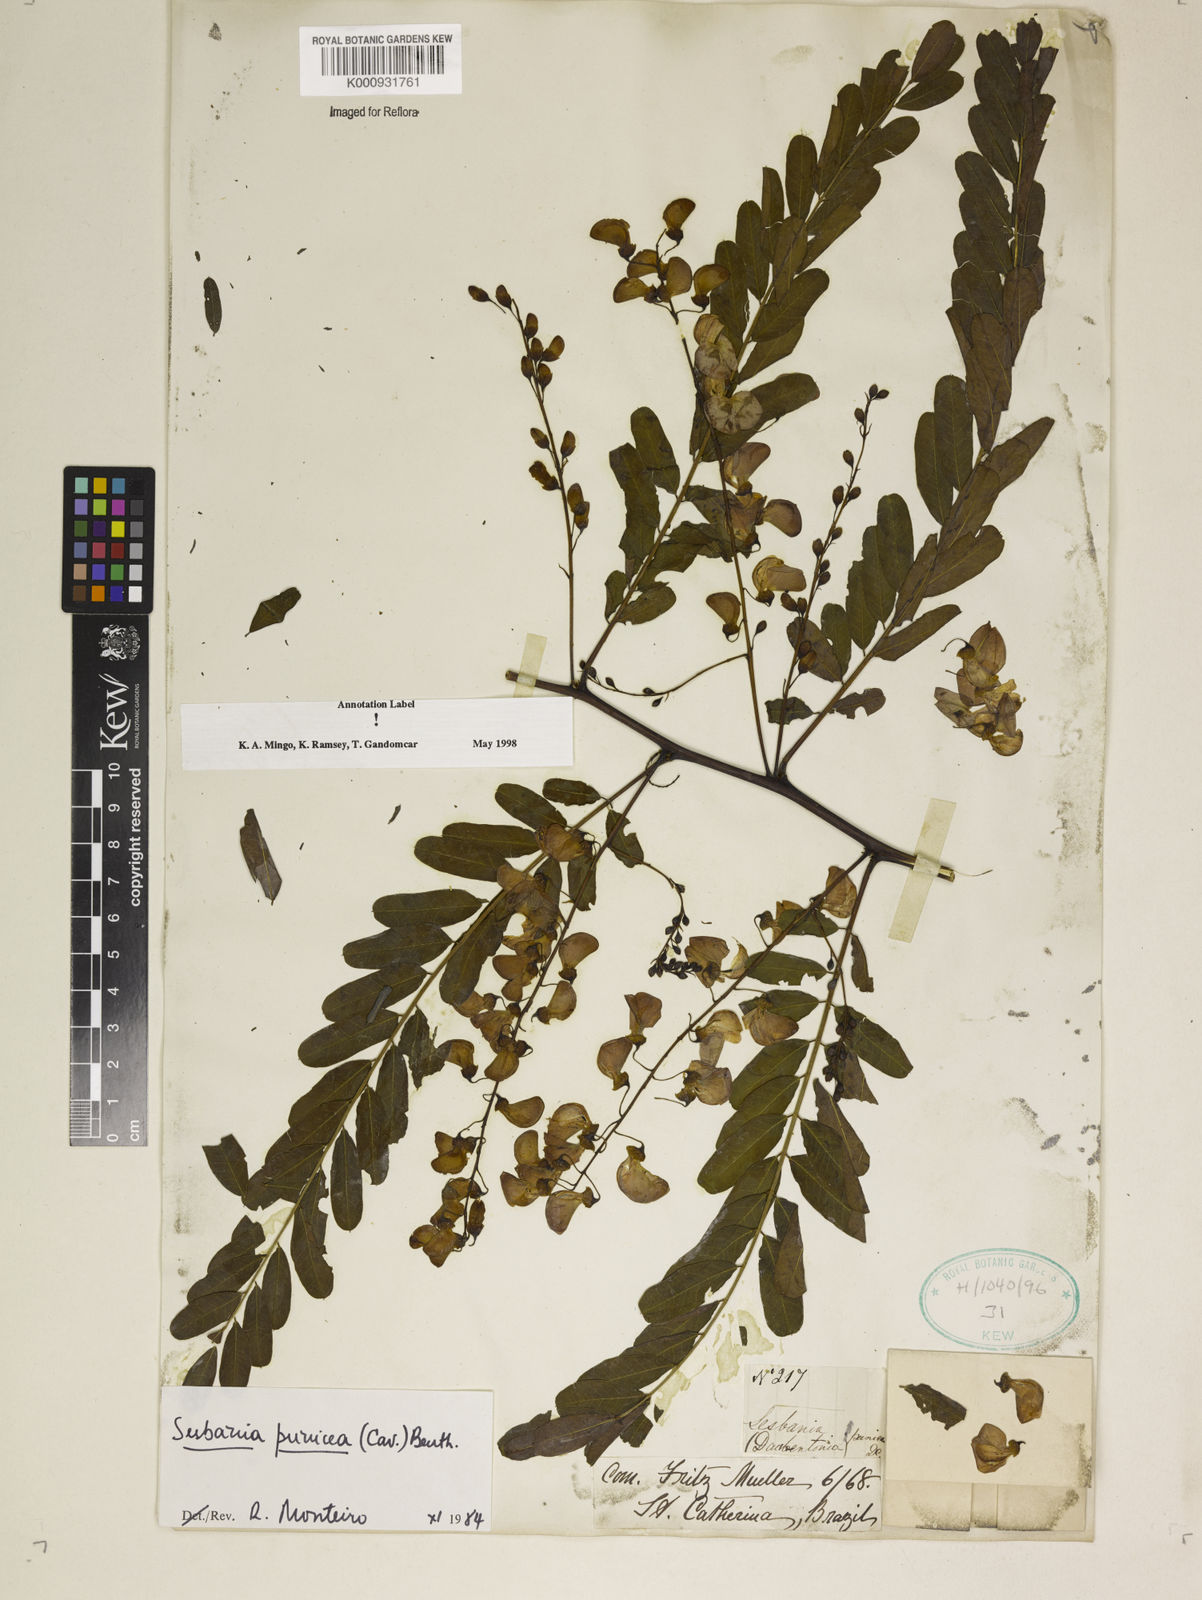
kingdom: Plantae
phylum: Tracheophyta
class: Magnoliopsida
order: Fabales
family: Fabaceae
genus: Sesbania
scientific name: Sesbania
